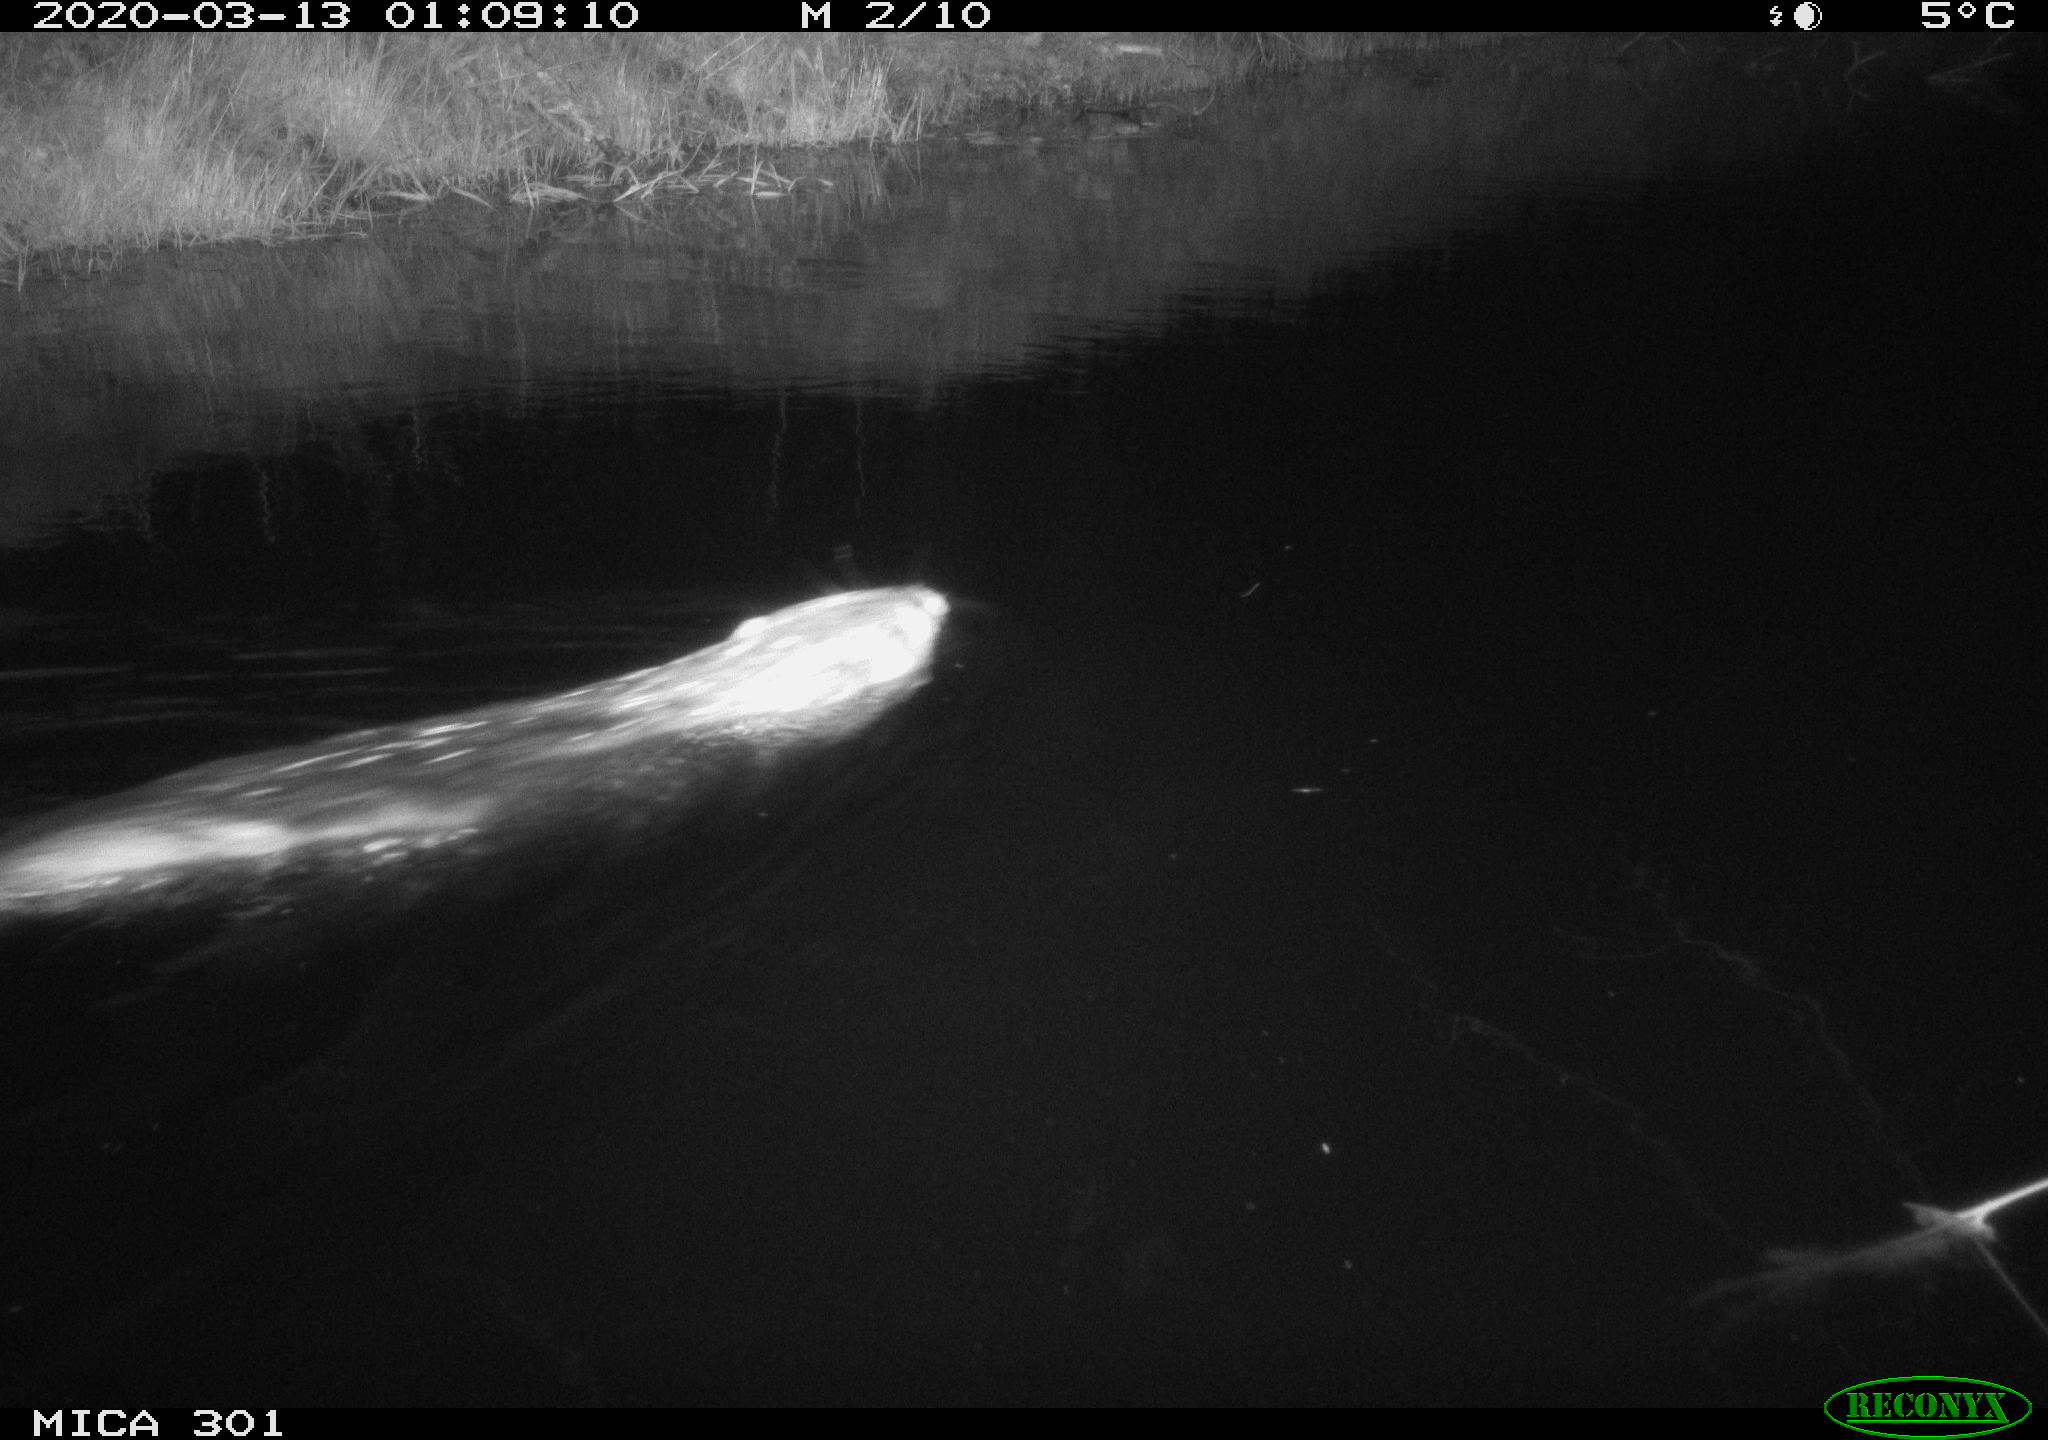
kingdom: Animalia
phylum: Chordata
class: Mammalia
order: Rodentia
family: Castoridae
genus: Castor
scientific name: Castor fiber
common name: Eurasian beaver
